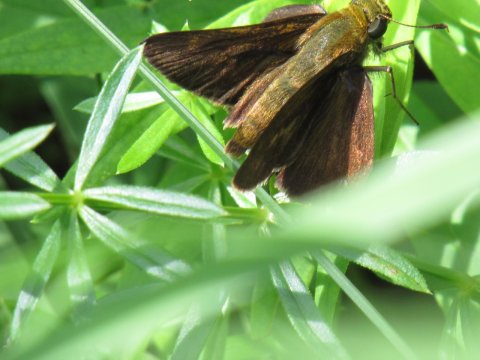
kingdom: Animalia
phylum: Arthropoda
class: Insecta
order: Lepidoptera
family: Hesperiidae
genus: Euphyes
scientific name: Euphyes vestris
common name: Dun Skipper
